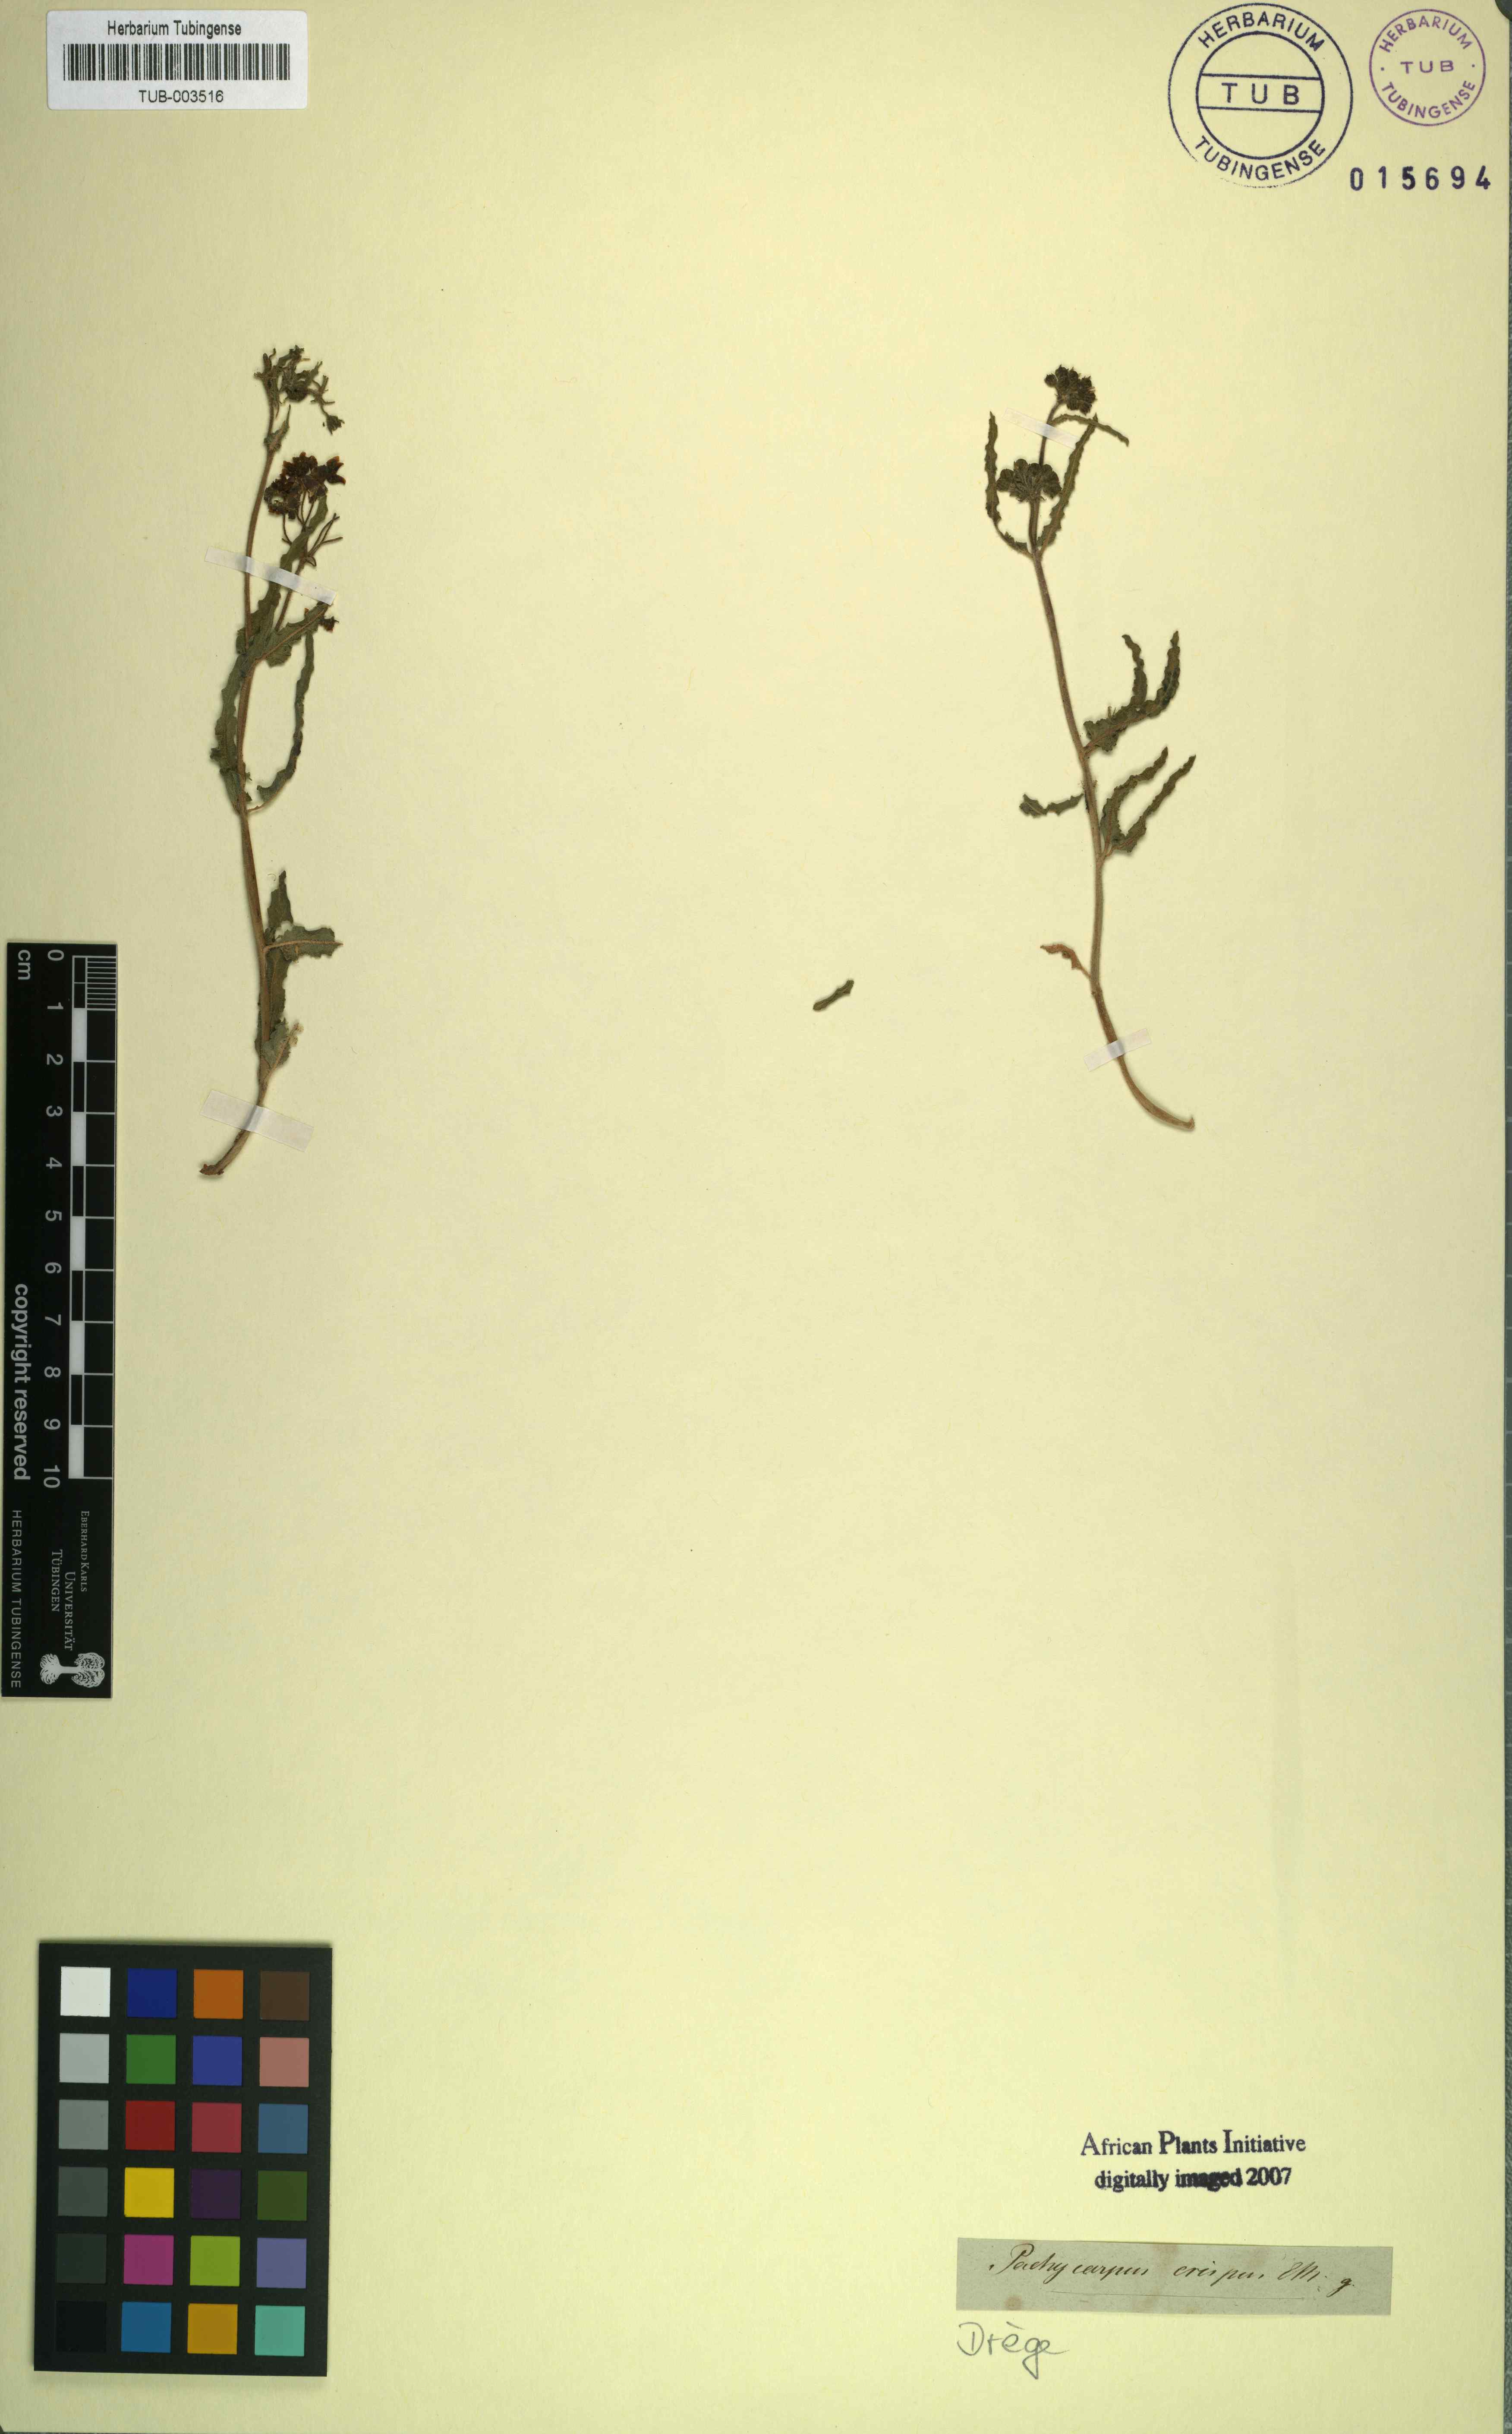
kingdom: Plantae
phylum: Tracheophyta
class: Magnoliopsida
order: Gentianales
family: Apocynaceae
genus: Gomphocarpus
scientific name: Gomphocarpus crispus
